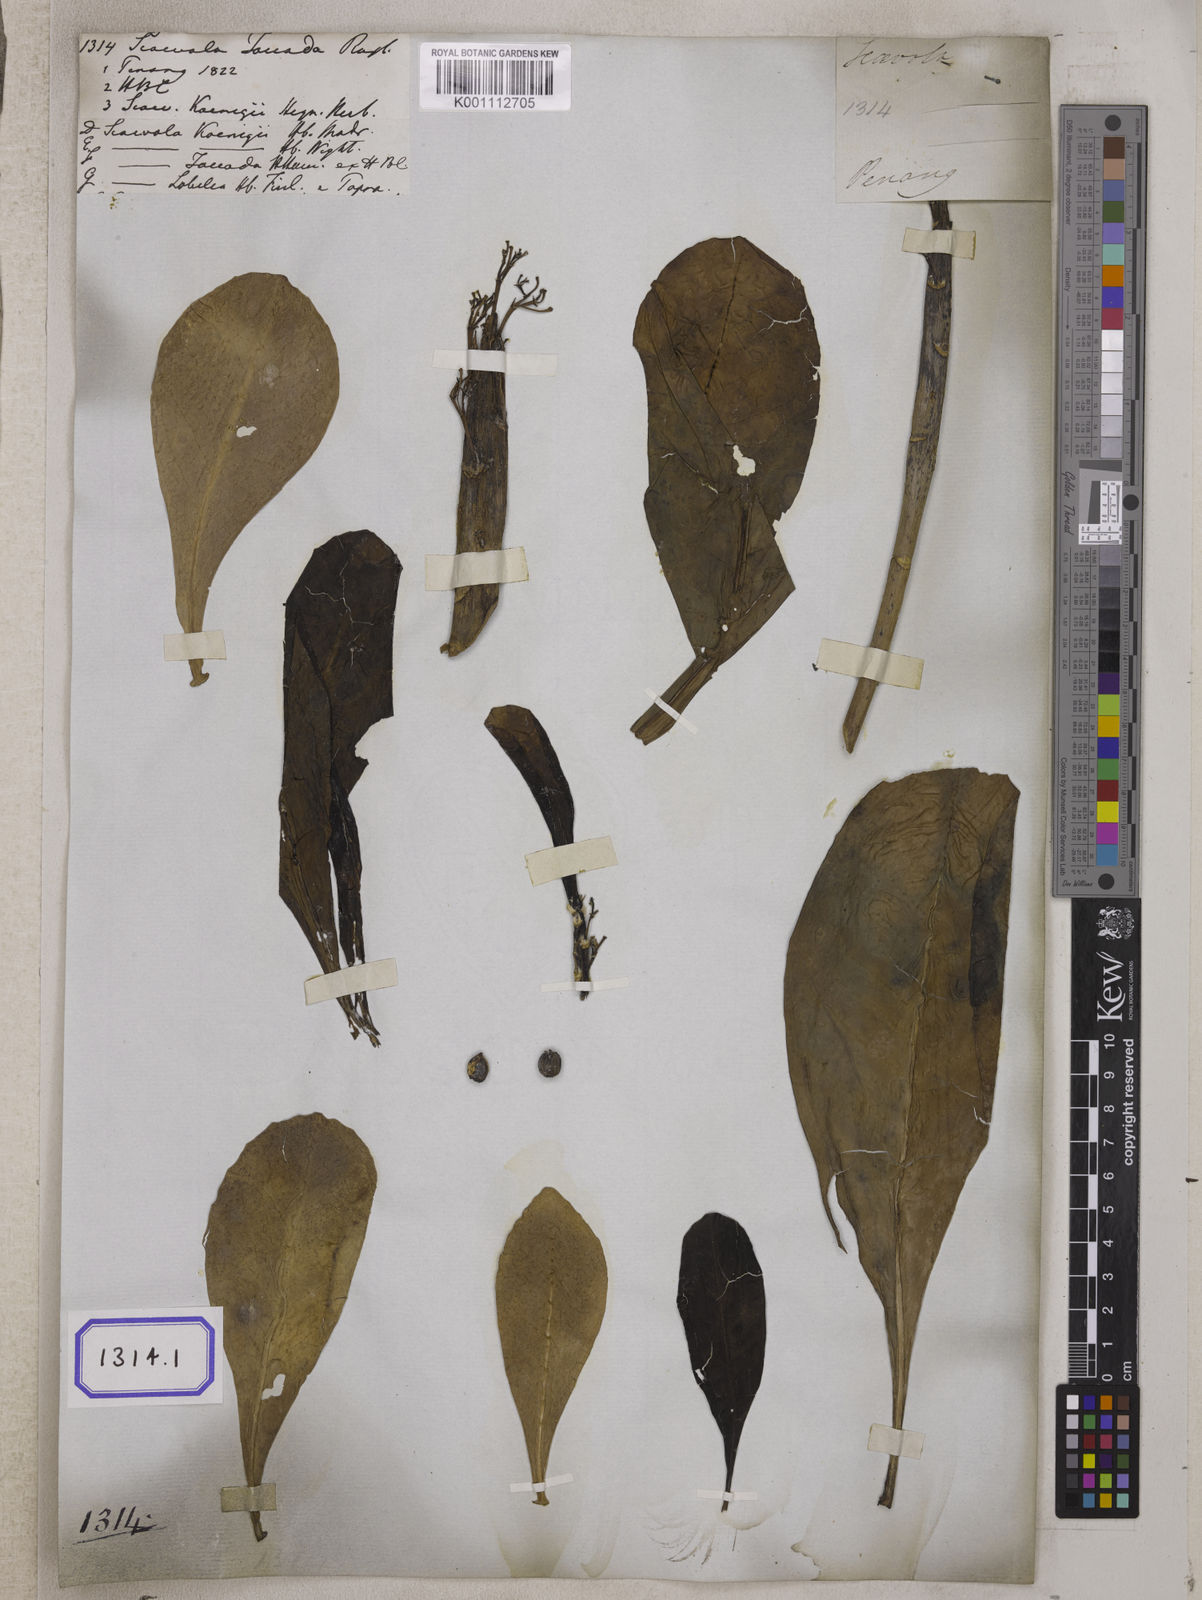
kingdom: Plantae
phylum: Tracheophyta
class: Magnoliopsida
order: Asterales
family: Goodeniaceae
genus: Scaevola
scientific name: Scaevola taccada
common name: Sea lettucetree
